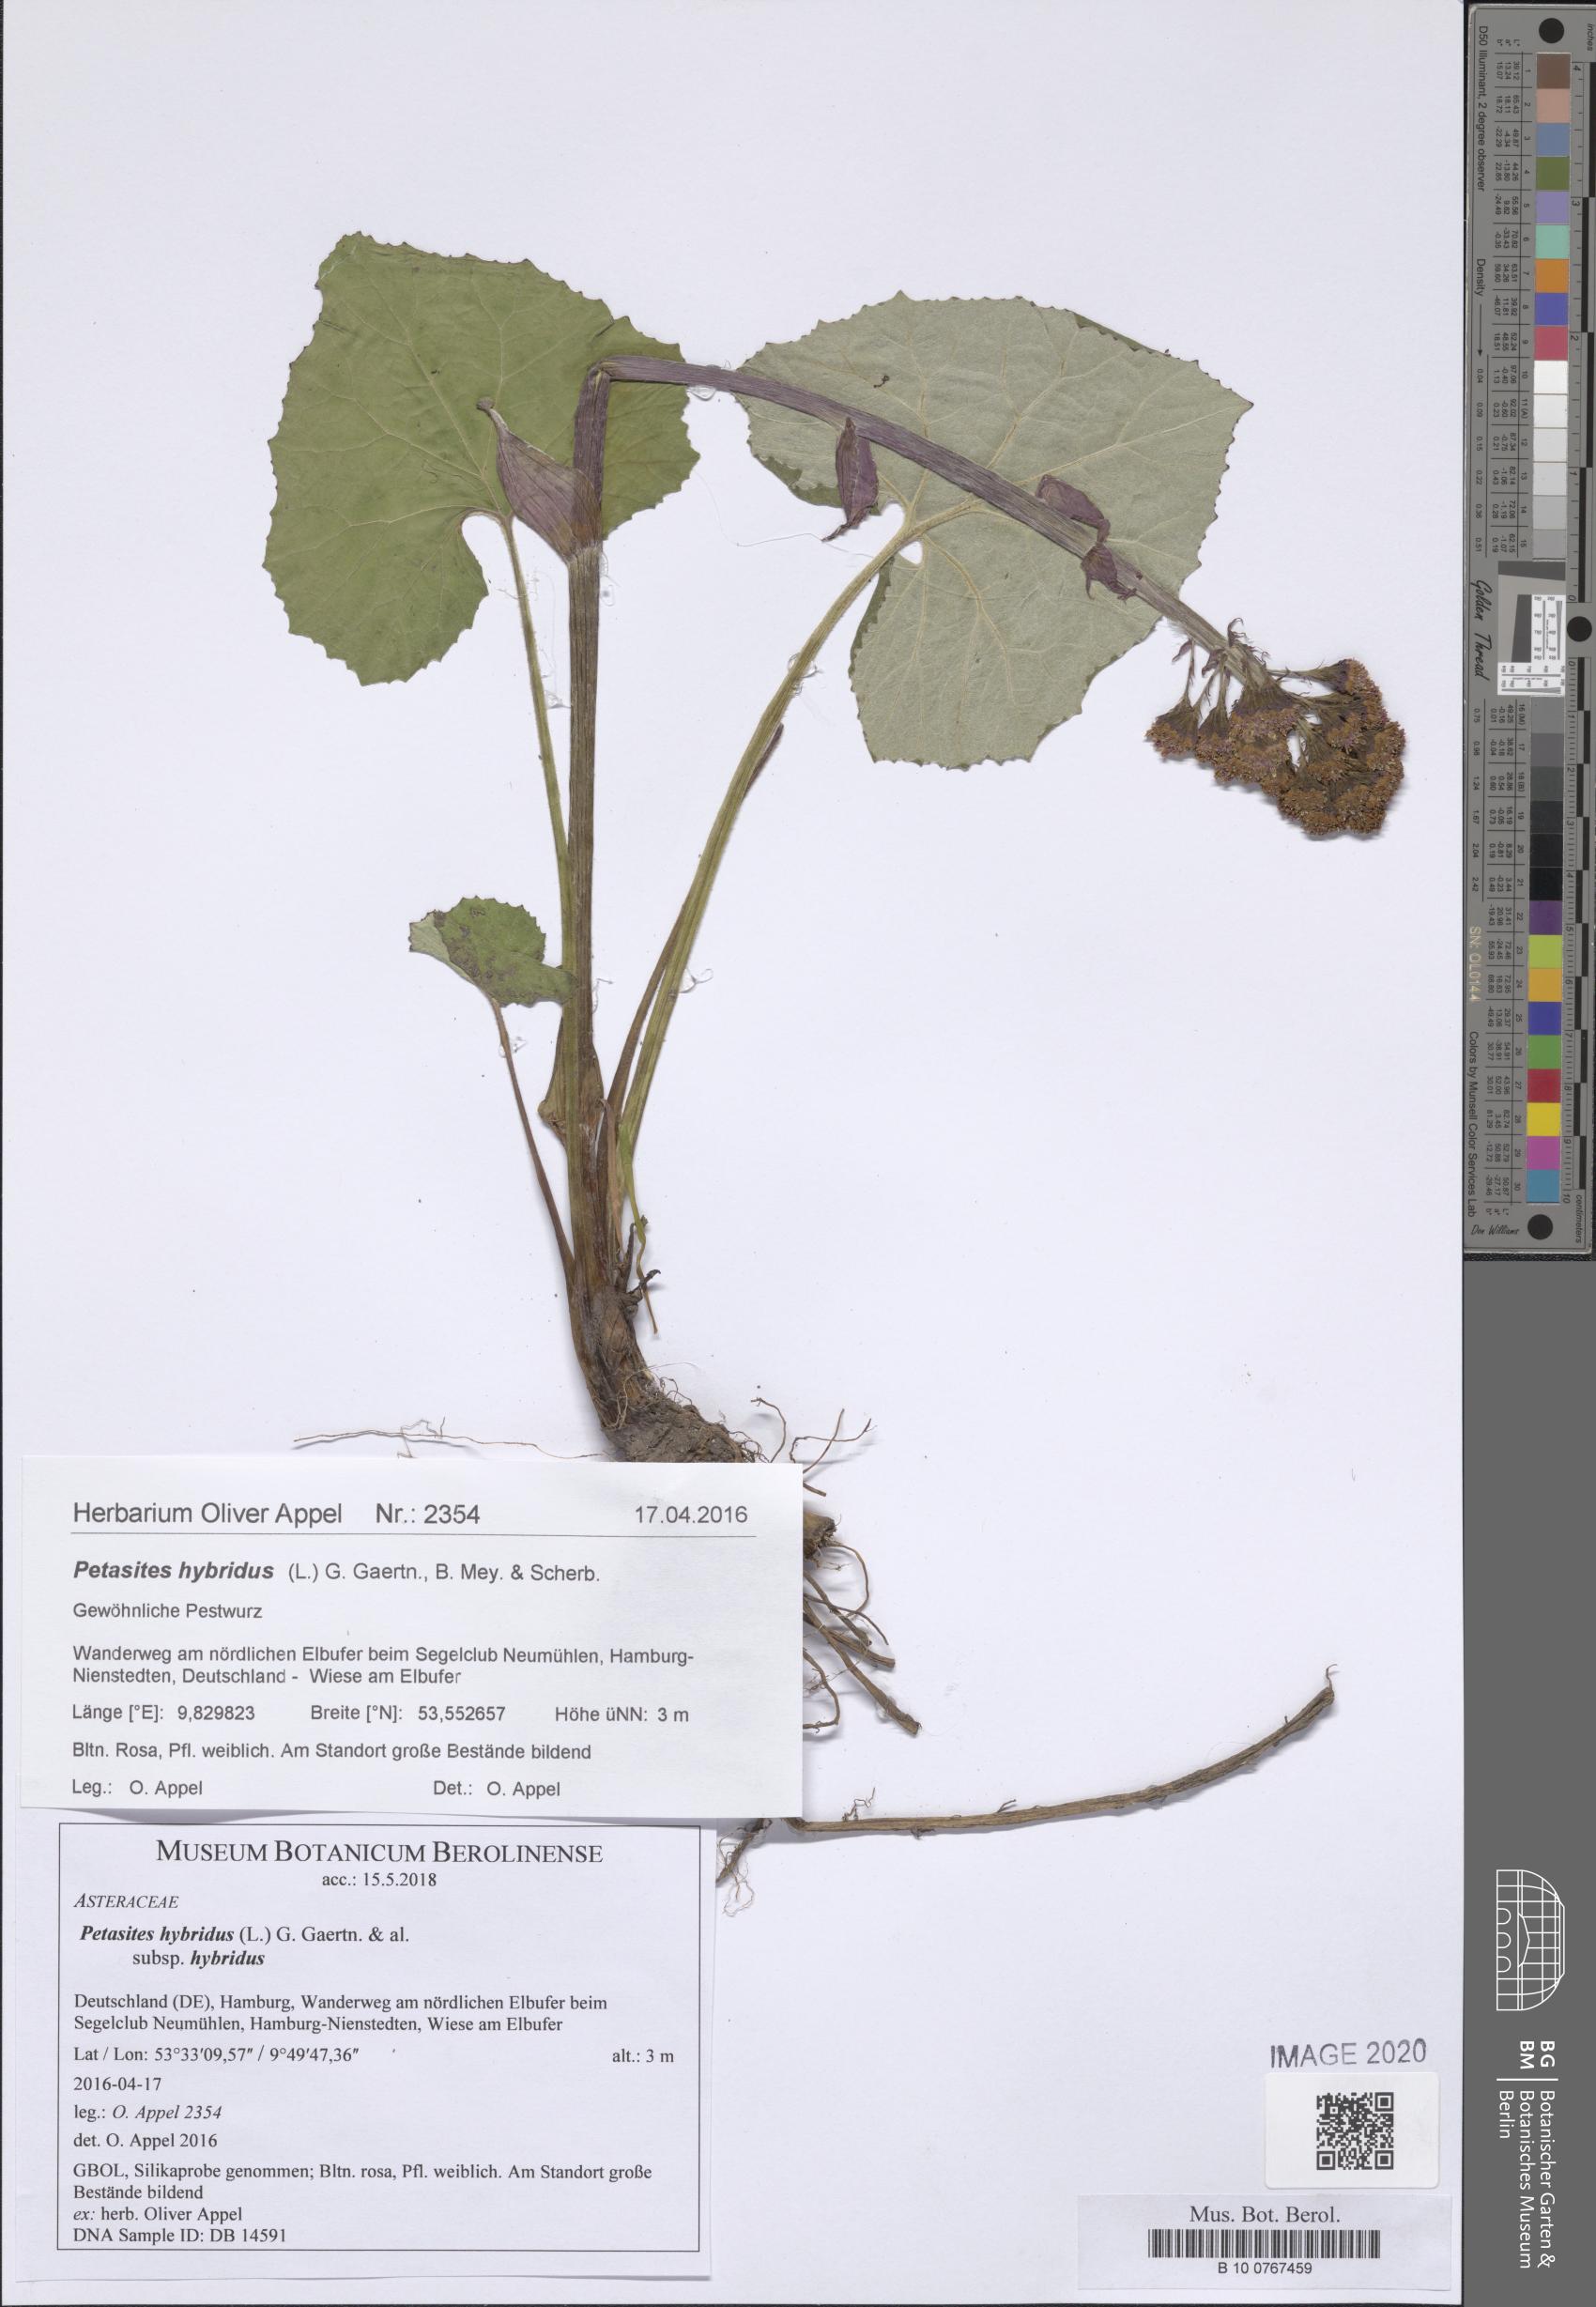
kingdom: Plantae
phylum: Tracheophyta
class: Magnoliopsida
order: Asterales
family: Asteraceae
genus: Petasites
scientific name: Petasites hybridus
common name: Butterbur
